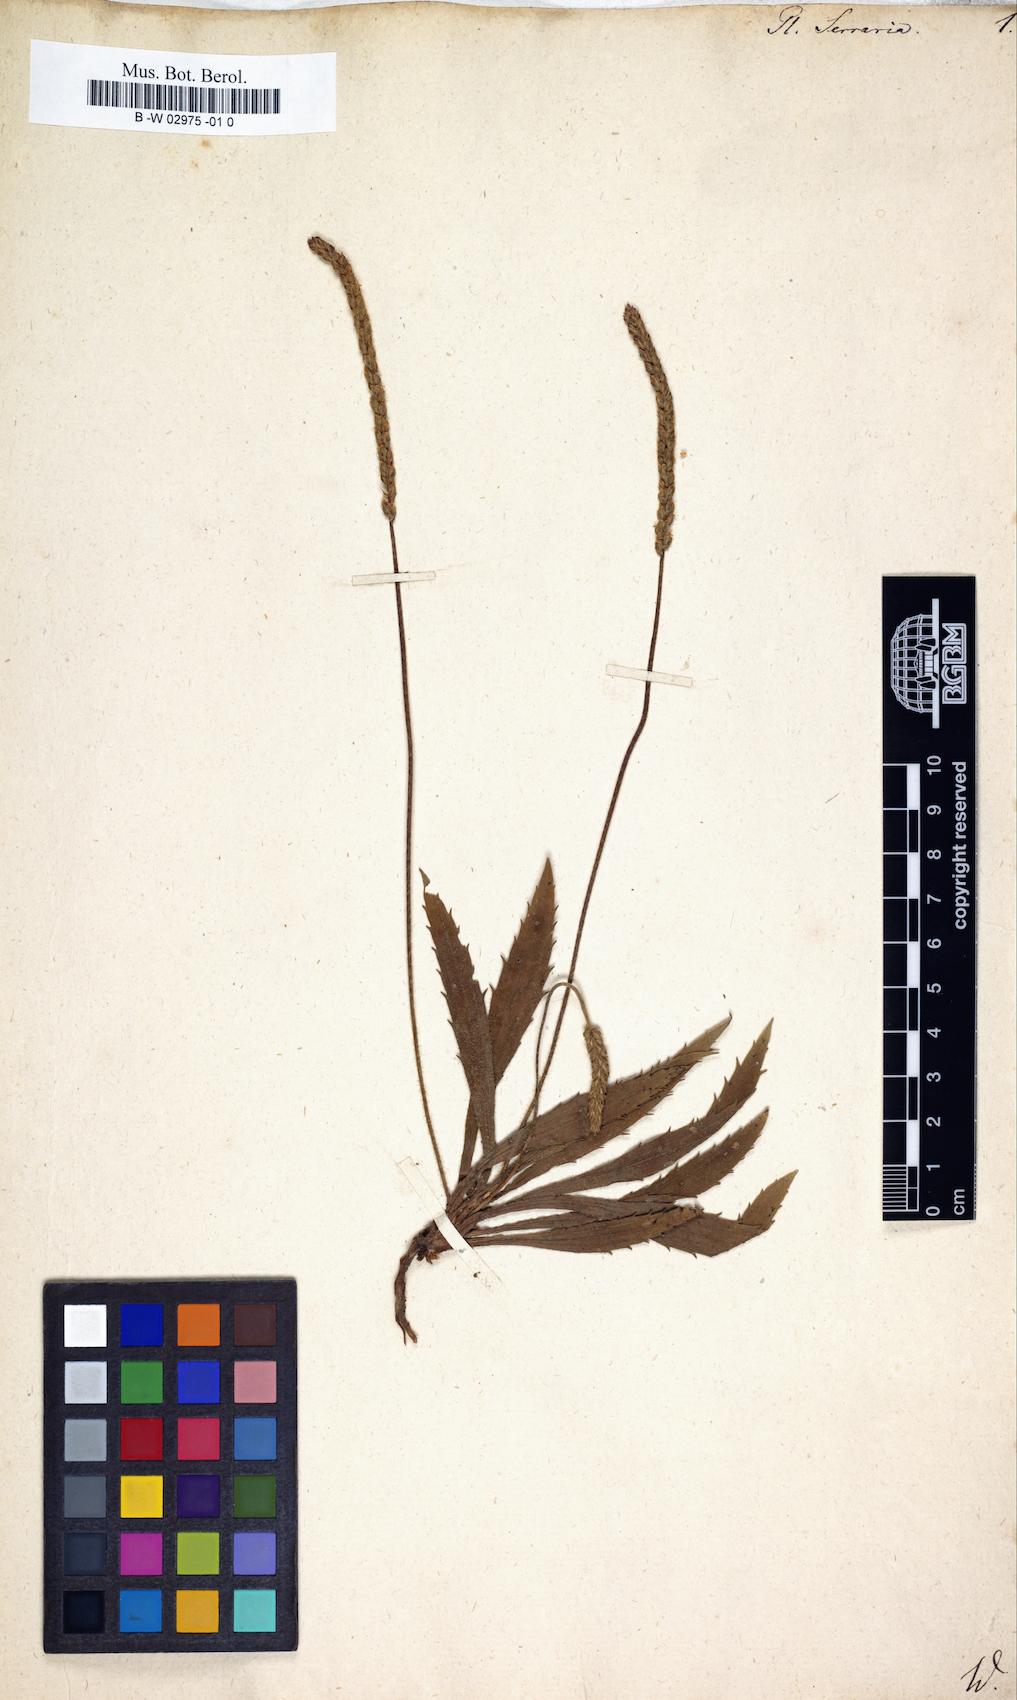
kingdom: Plantae
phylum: Tracheophyta
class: Magnoliopsida
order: Lamiales
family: Plantaginaceae
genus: Plantago
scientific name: Plantago serraria
